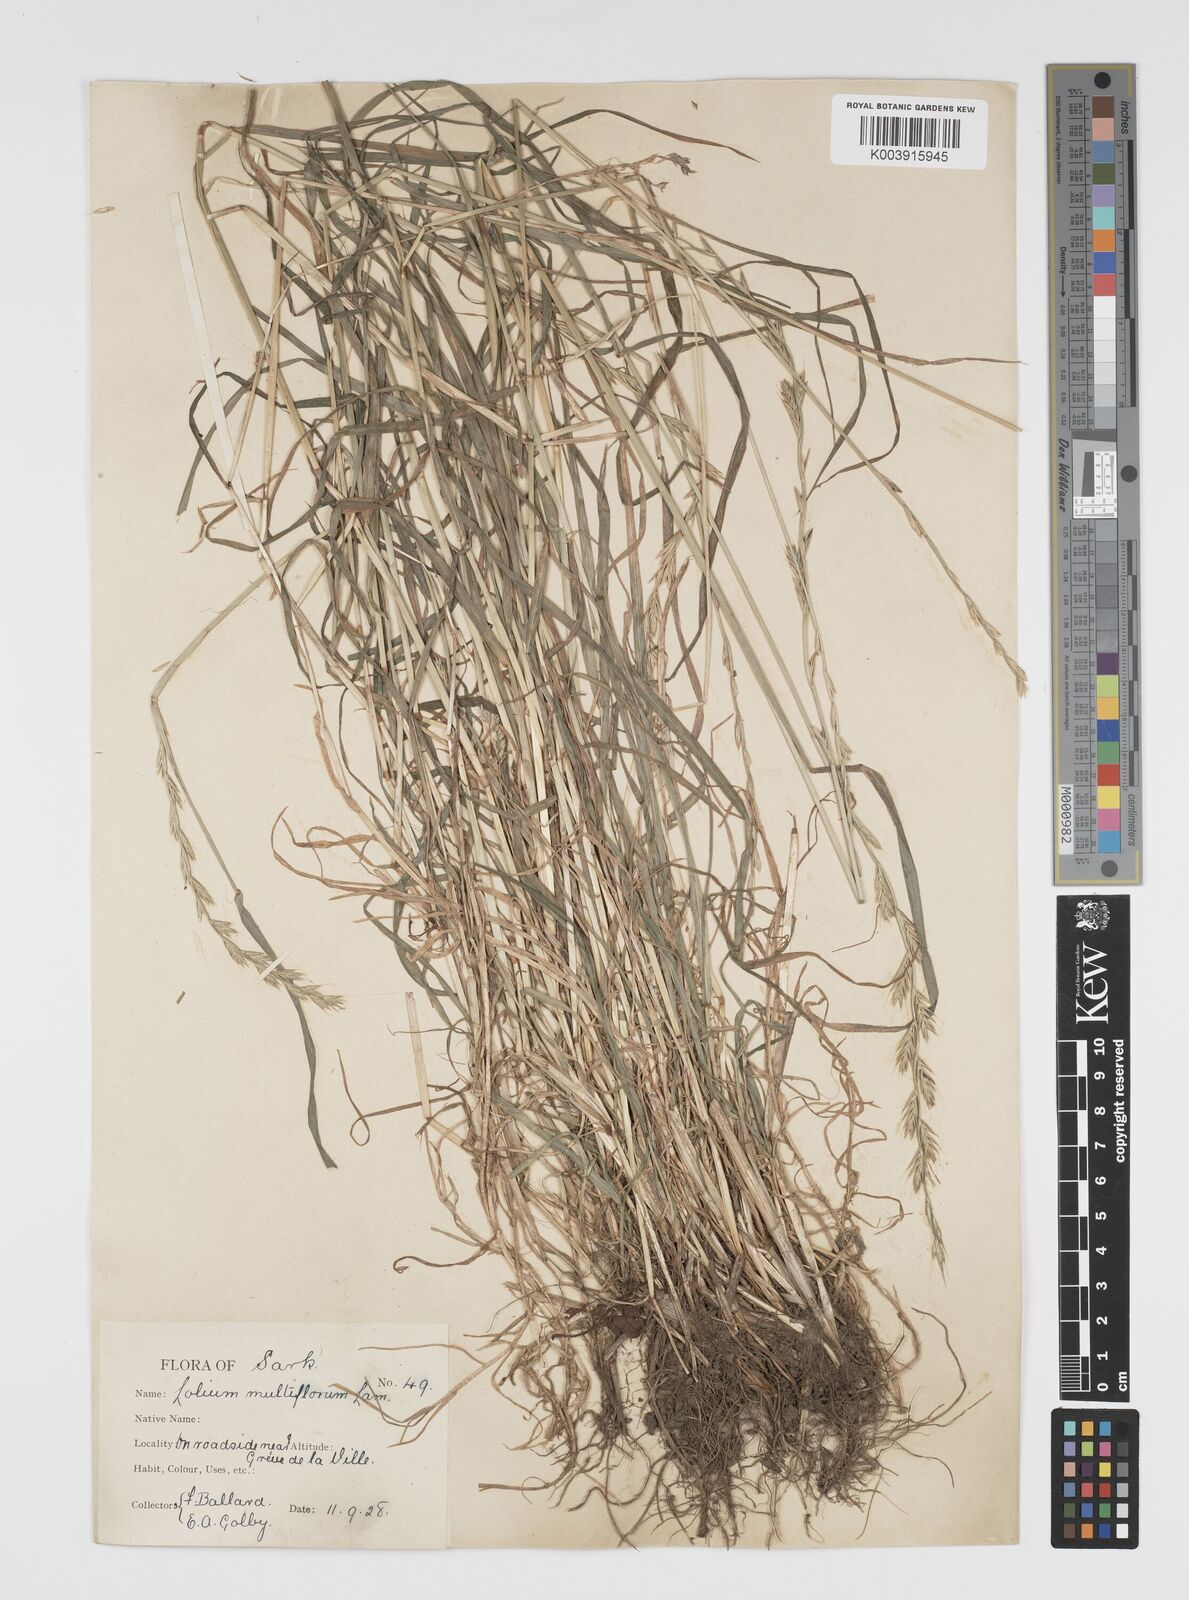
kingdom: Plantae
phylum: Tracheophyta
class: Liliopsida
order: Poales
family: Poaceae
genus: Lolium
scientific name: Lolium multiflorum
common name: Annual ryegrass
